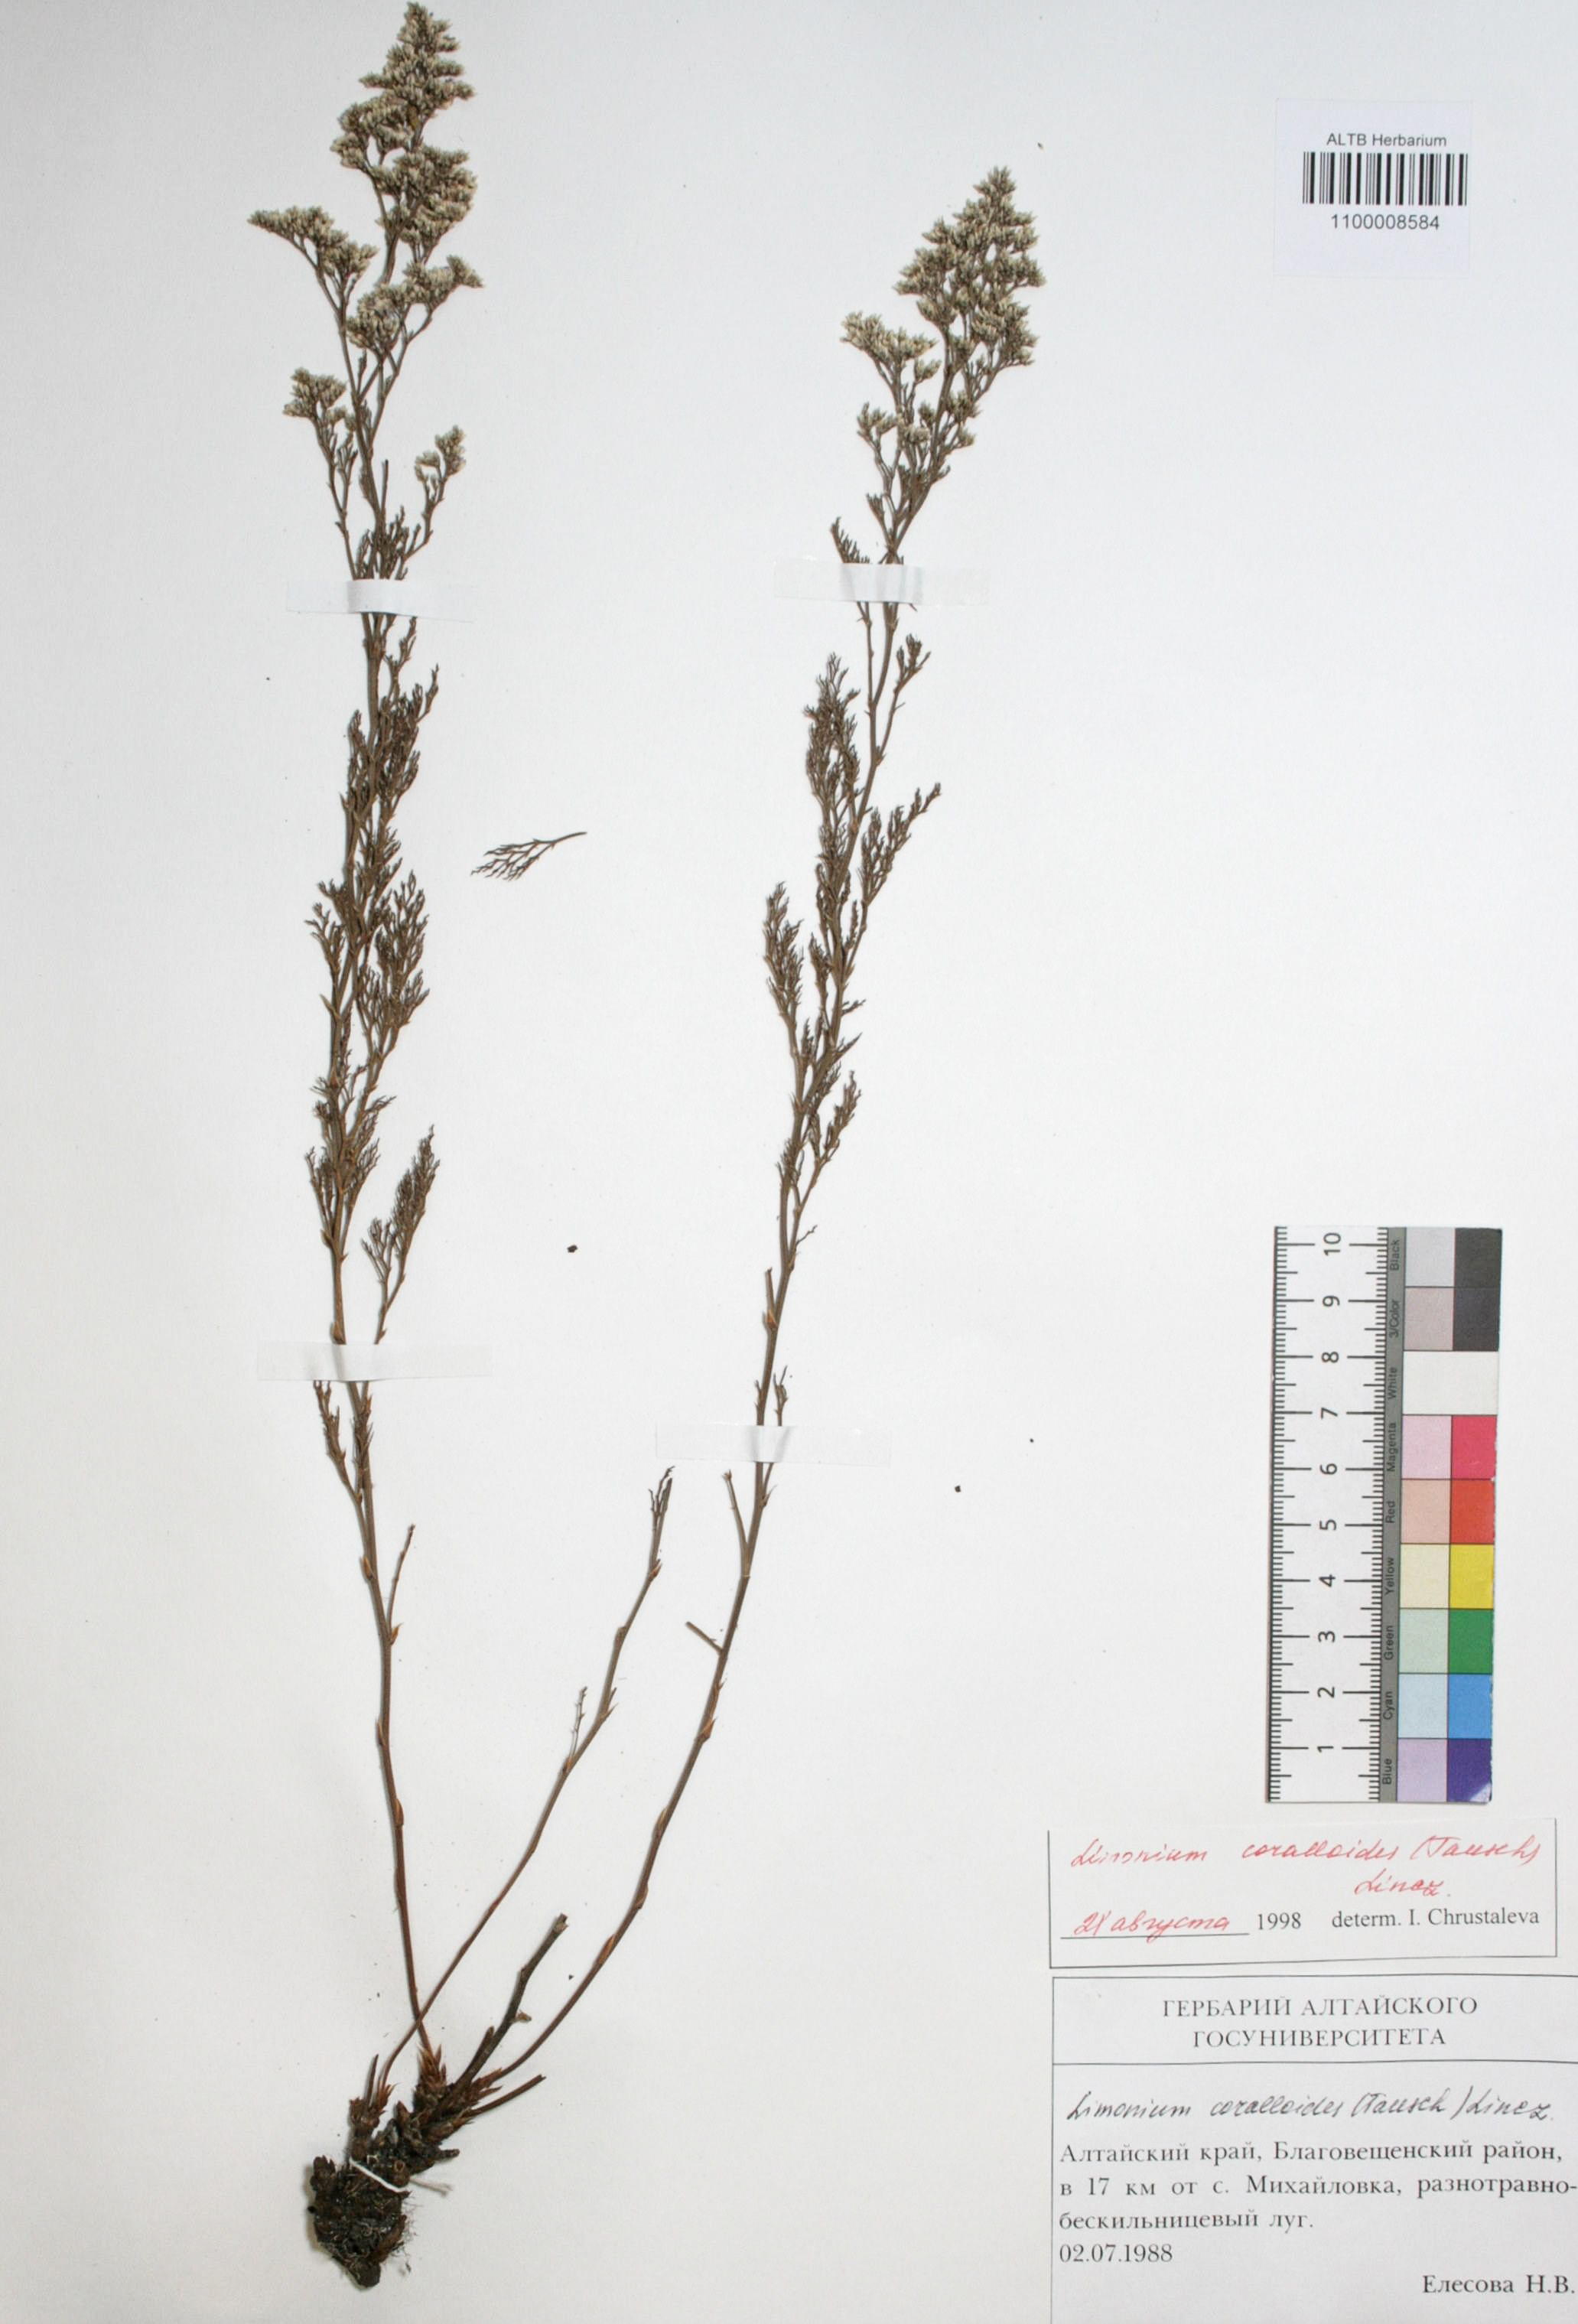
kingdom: Plantae
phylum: Tracheophyta
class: Magnoliopsida
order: Caryophyllales
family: Plumbaginaceae
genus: Limonium
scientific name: Limonium coralloides
